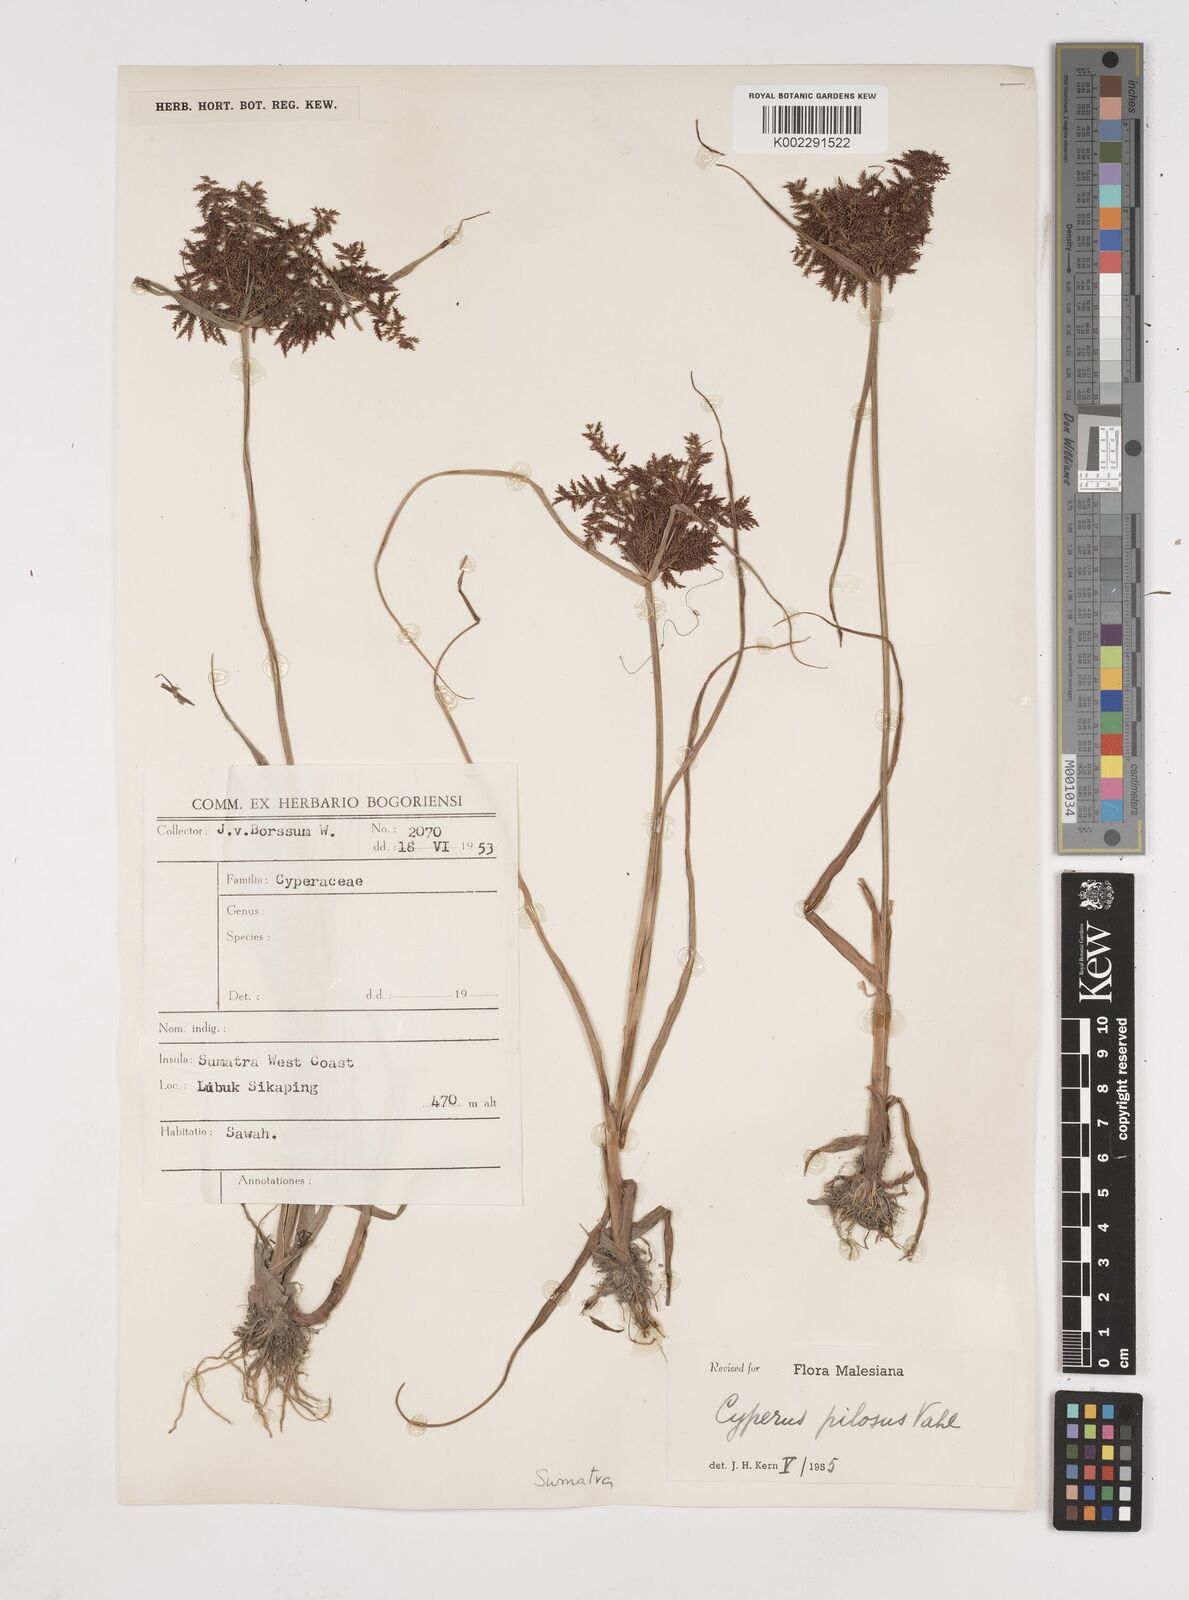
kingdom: Plantae
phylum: Tracheophyta
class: Liliopsida
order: Poales
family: Cyperaceae
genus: Cyperus
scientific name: Cyperus pilosus
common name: Fuzzy flatsedge
